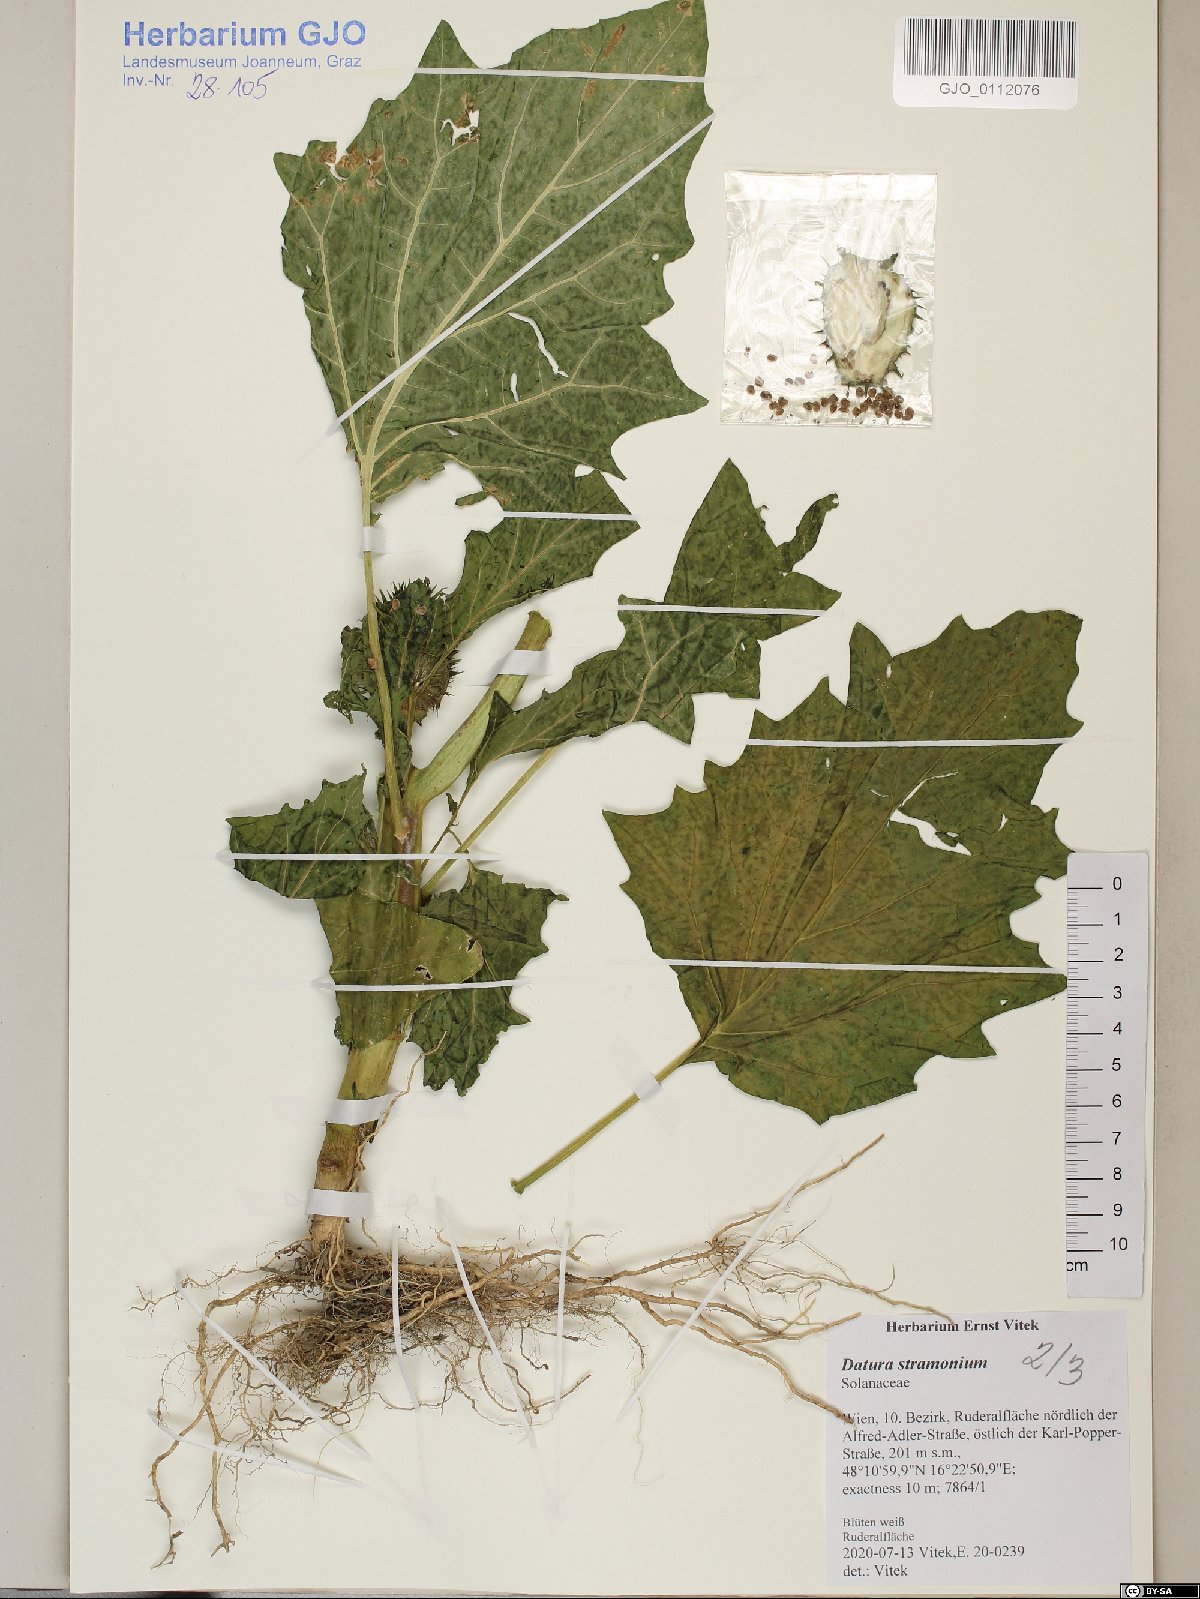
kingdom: Plantae
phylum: Tracheophyta
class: Magnoliopsida
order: Solanales
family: Solanaceae
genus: Datura
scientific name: Datura stramonium
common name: Thorn-apple
